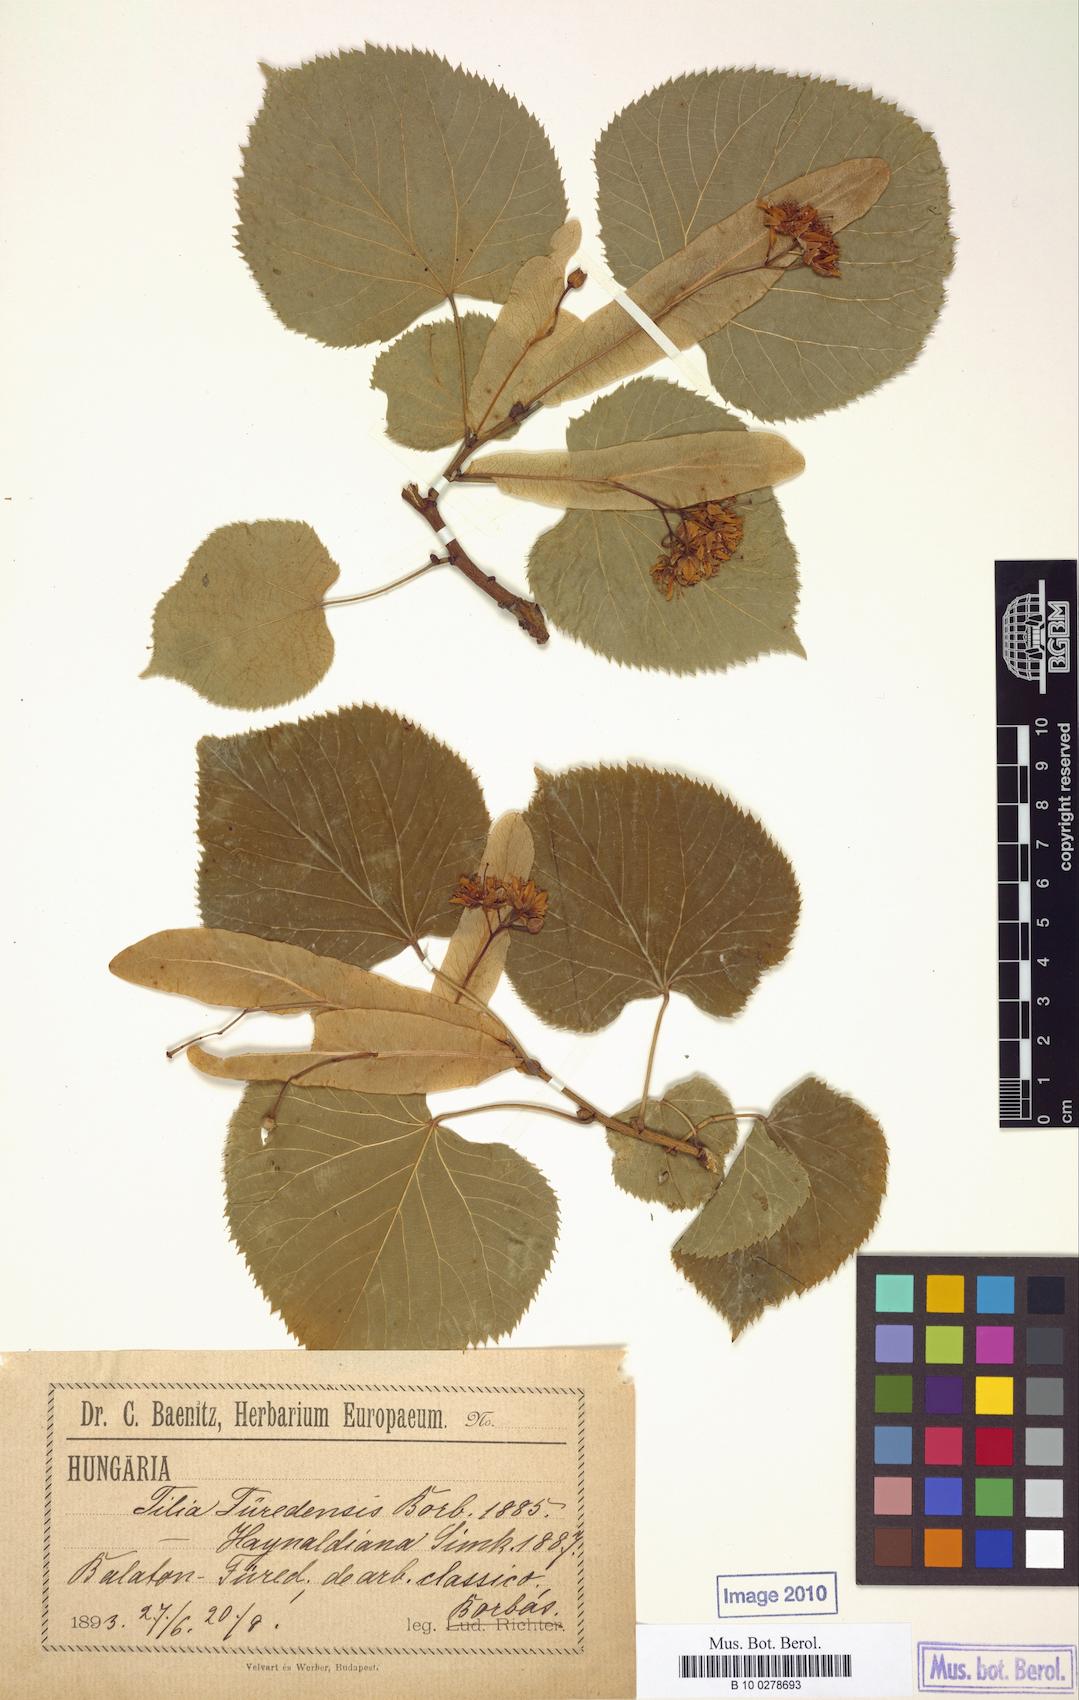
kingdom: Plantae
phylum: Tracheophyta
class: Magnoliopsida
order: Malvales
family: Malvaceae
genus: Tilia
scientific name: Tilia furedensis
